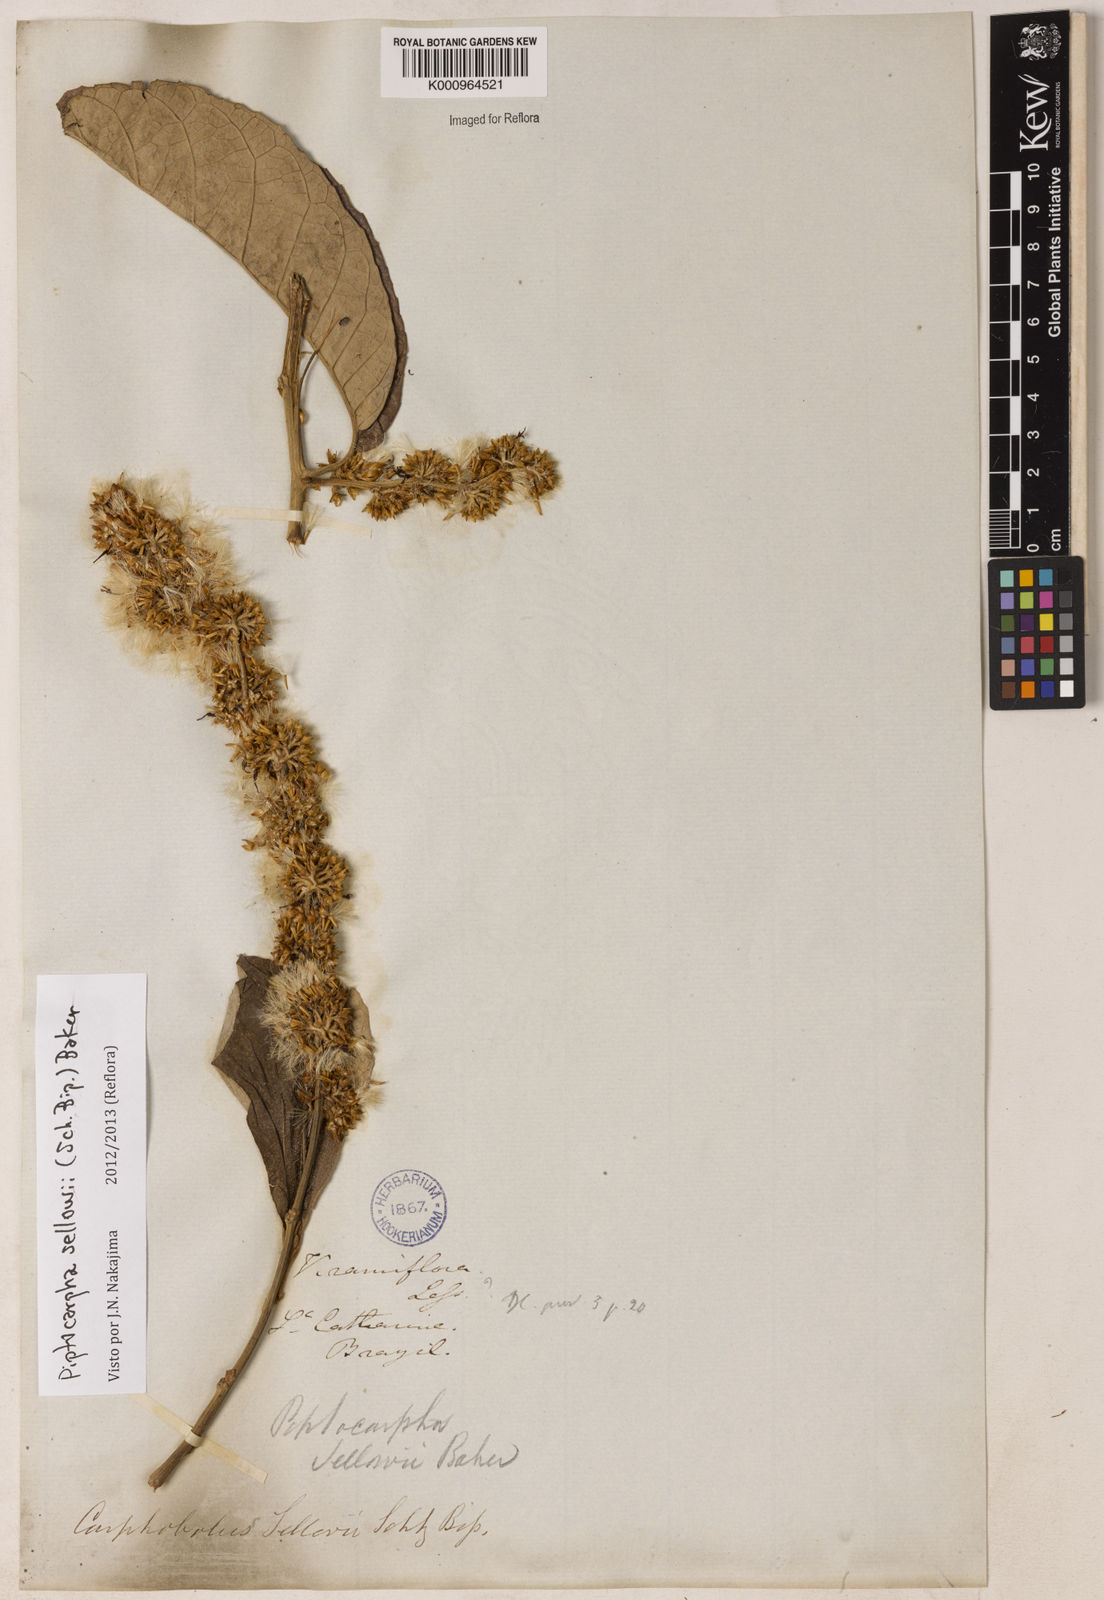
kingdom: Plantae
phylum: Tracheophyta
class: Magnoliopsida
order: Asterales
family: Asteraceae
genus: Piptocarpha
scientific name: Piptocarpha
